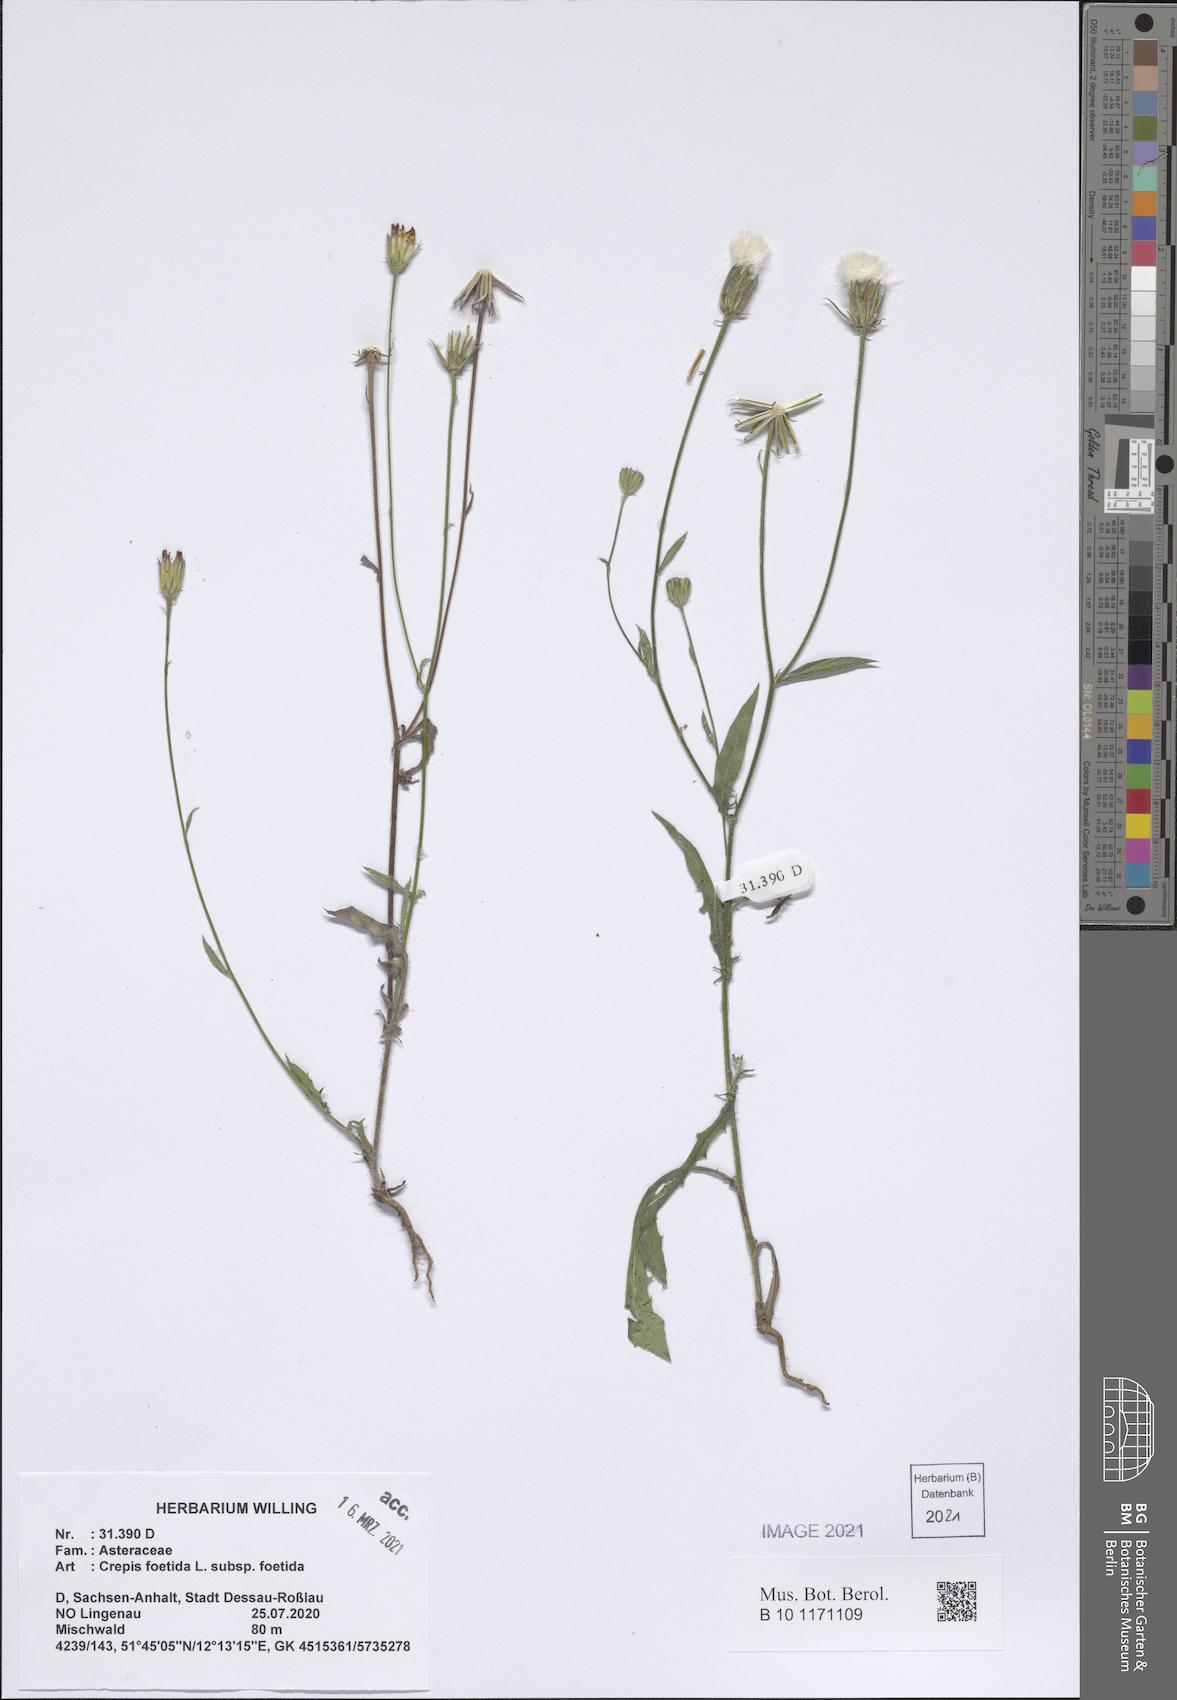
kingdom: Plantae
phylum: Tracheophyta
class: Magnoliopsida
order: Asterales
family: Asteraceae
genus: Crepis
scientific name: Crepis foetida
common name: Stinking hawk's-beard
